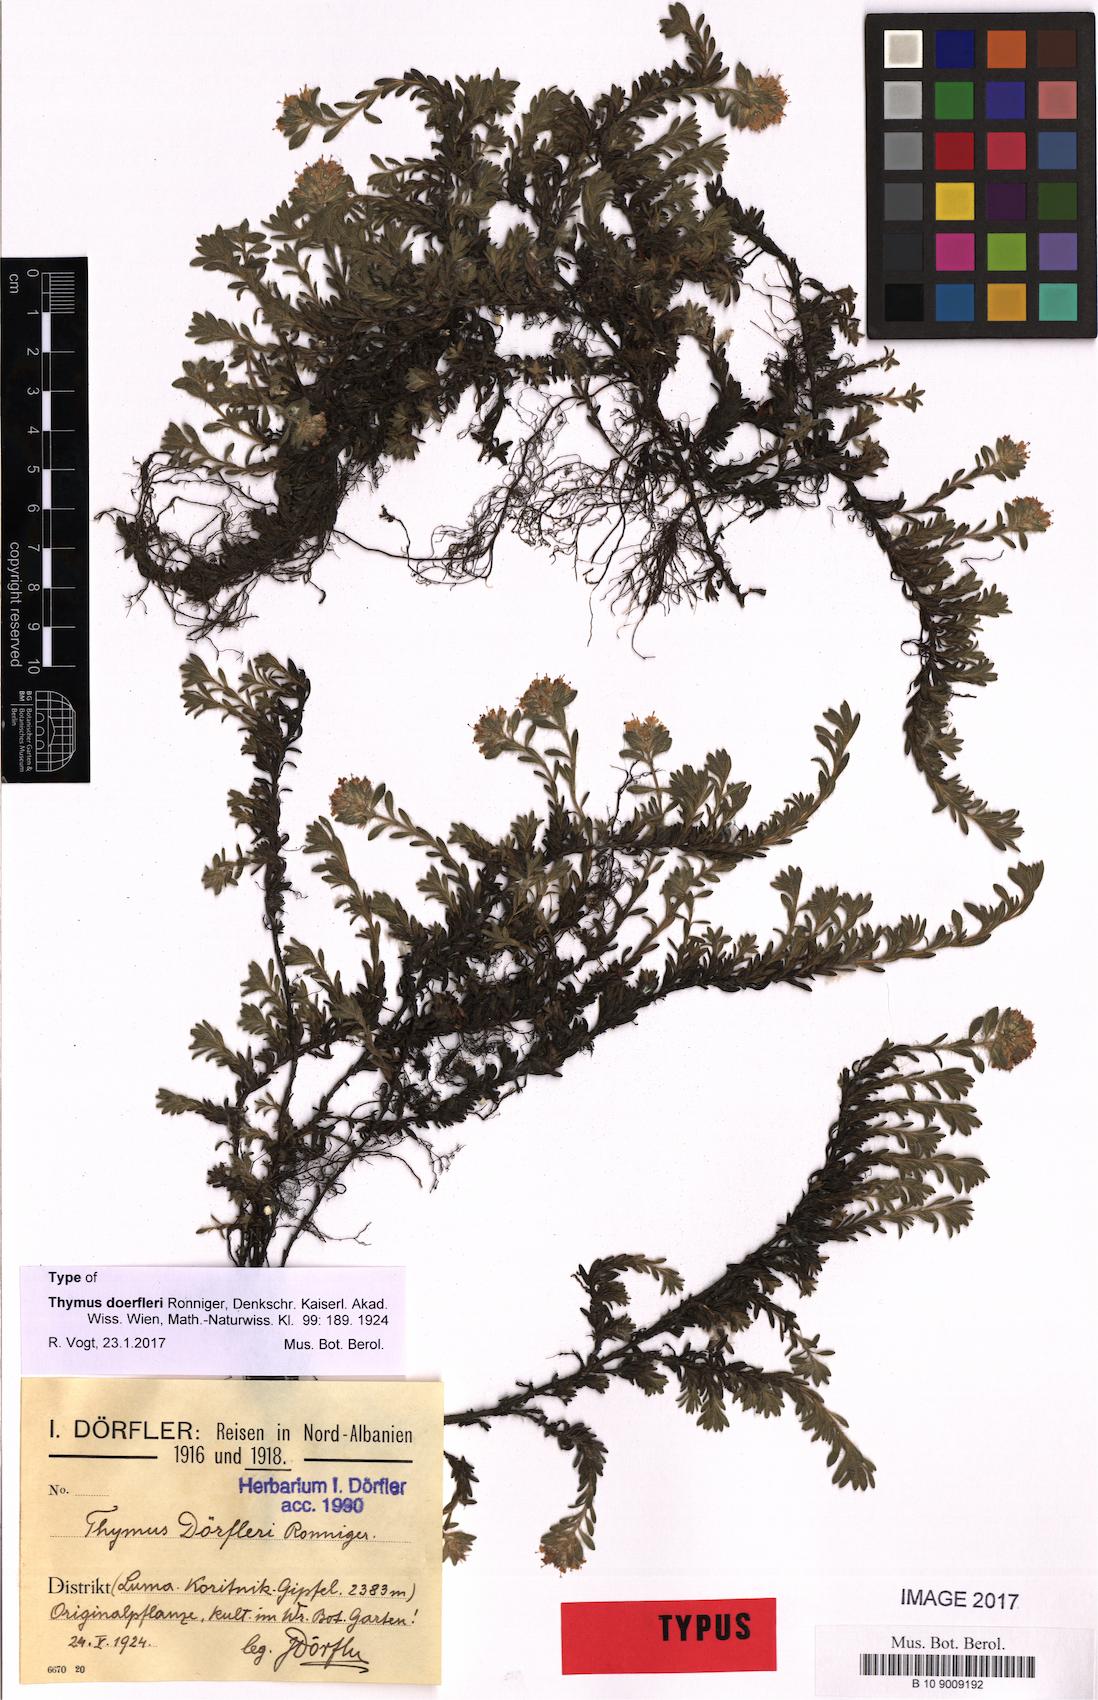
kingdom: Plantae
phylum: Tracheophyta
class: Magnoliopsida
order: Lamiales
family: Lamiaceae
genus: Thymus
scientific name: Thymus doerfleri
